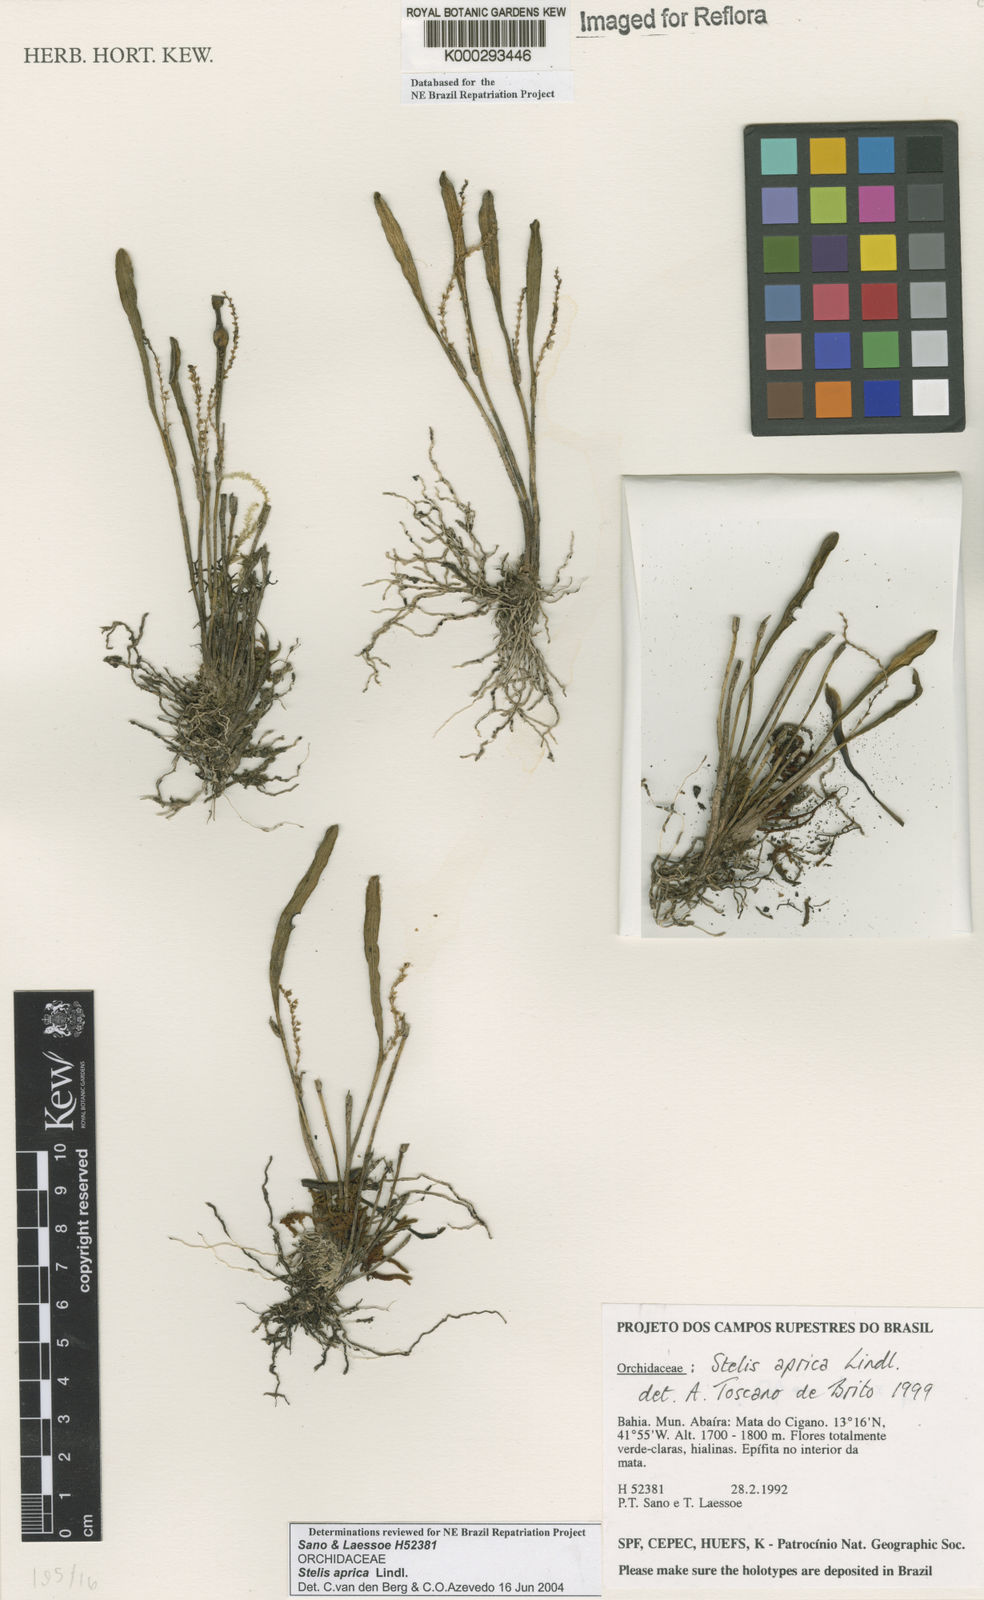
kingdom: Plantae
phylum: Tracheophyta
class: Liliopsida
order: Asparagales
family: Orchidaceae
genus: Stelis
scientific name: Stelis aprica
